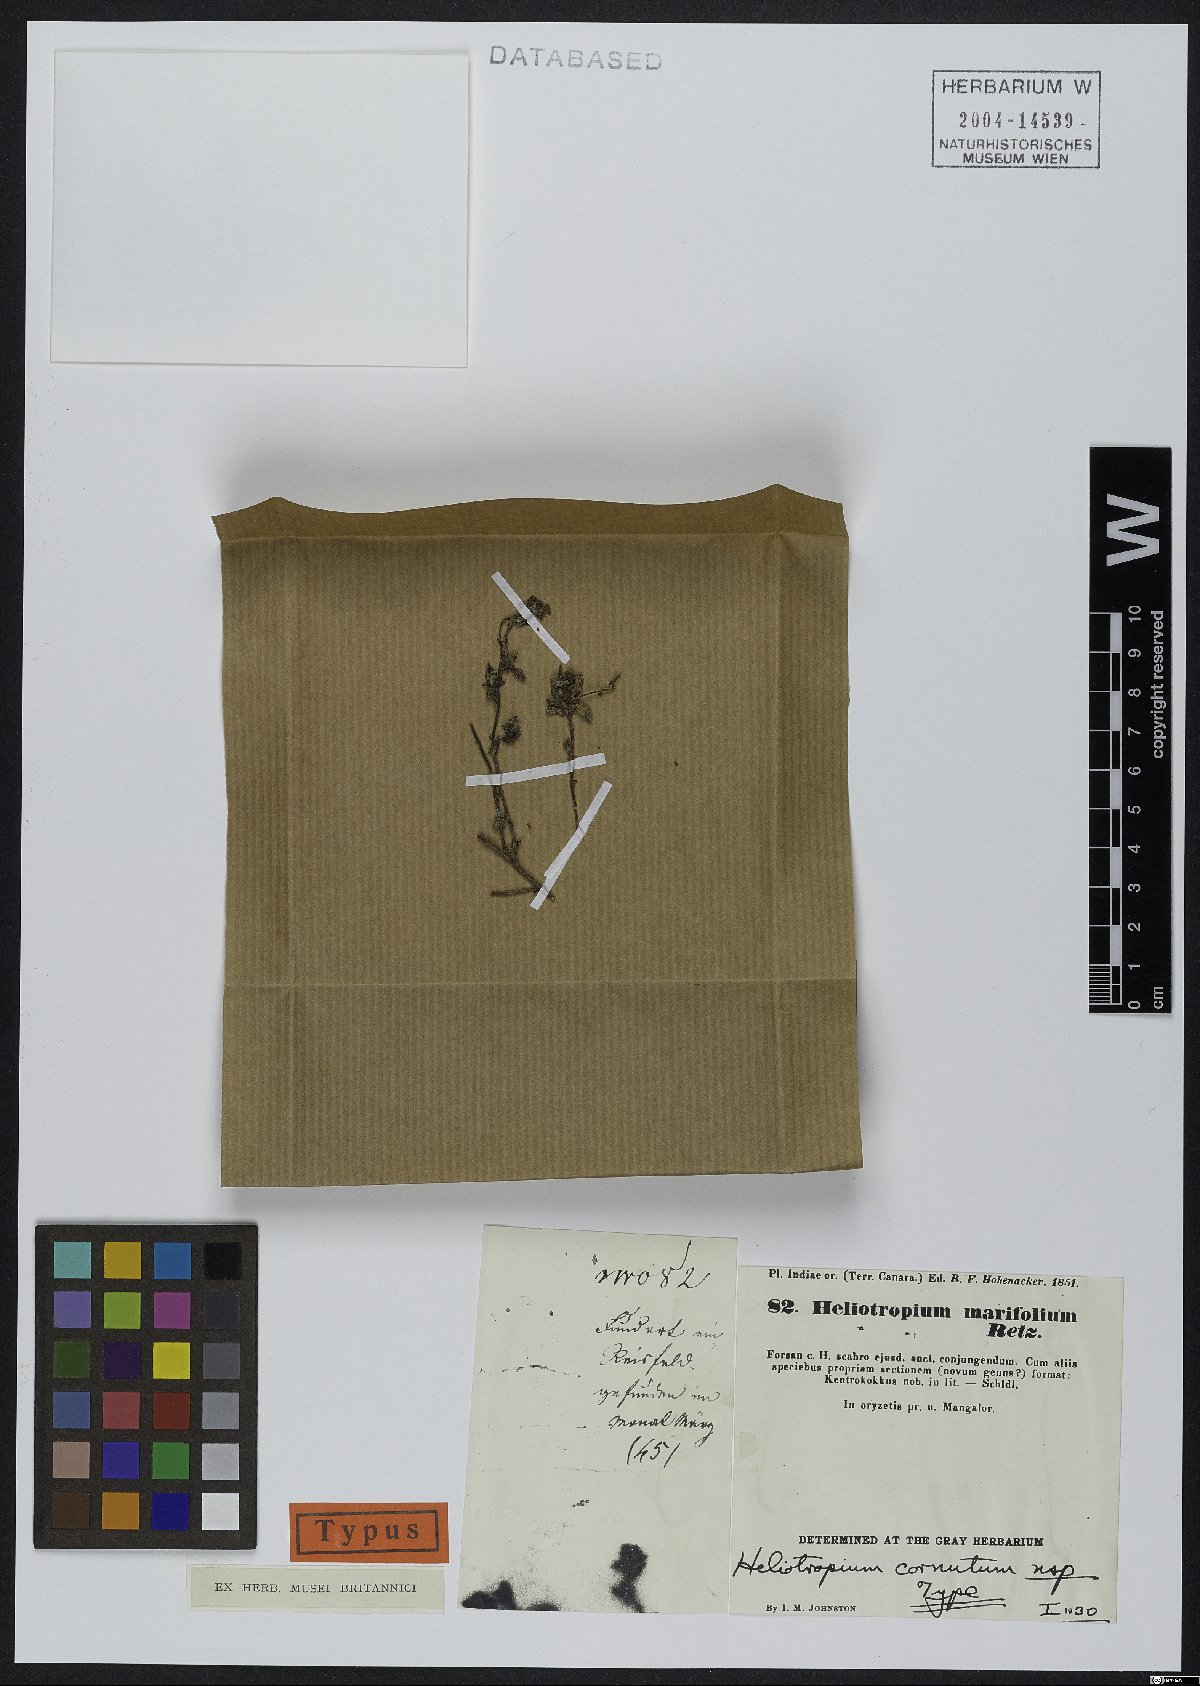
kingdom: Plantae
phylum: Tracheophyta
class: Magnoliopsida
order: Boraginales
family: Heliotropiaceae
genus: Euploca
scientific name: Euploca cornuta
